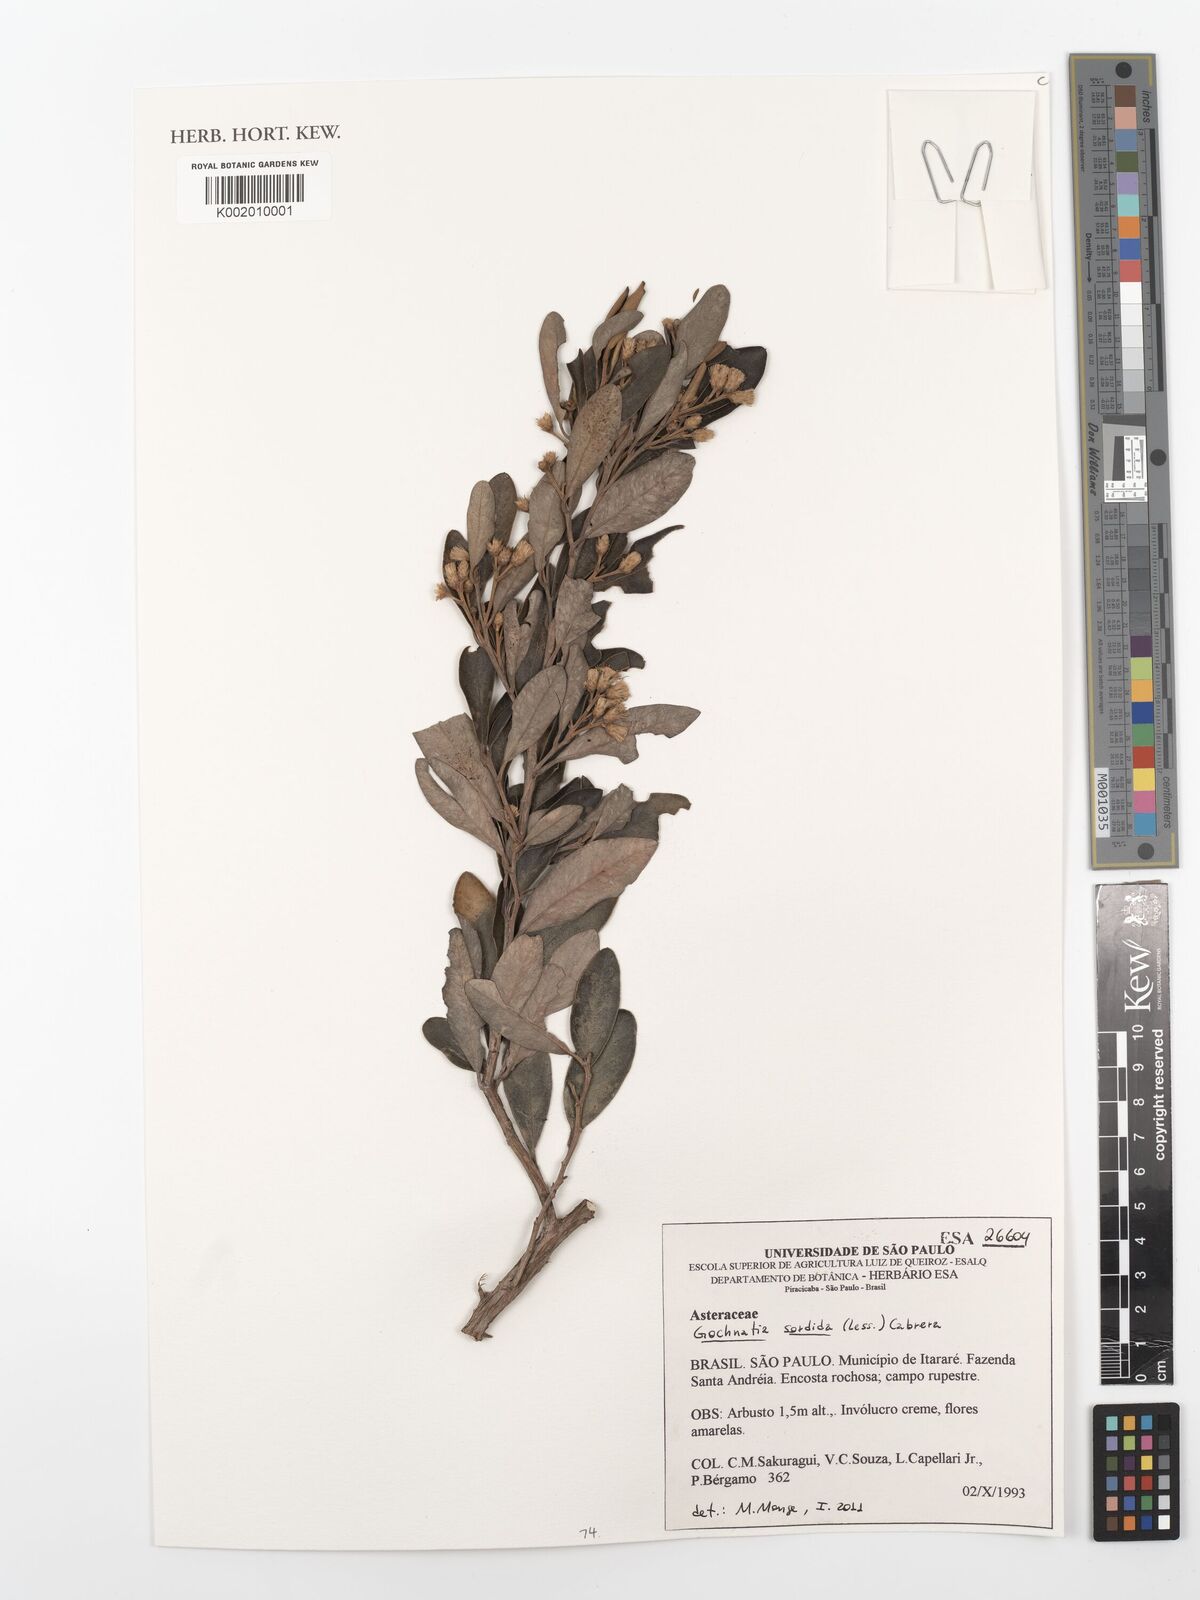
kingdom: Plantae
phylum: Tracheophyta
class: Magnoliopsida
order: Asterales
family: Asteraceae
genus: Moquiniastrum
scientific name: Moquiniastrum sordidum
